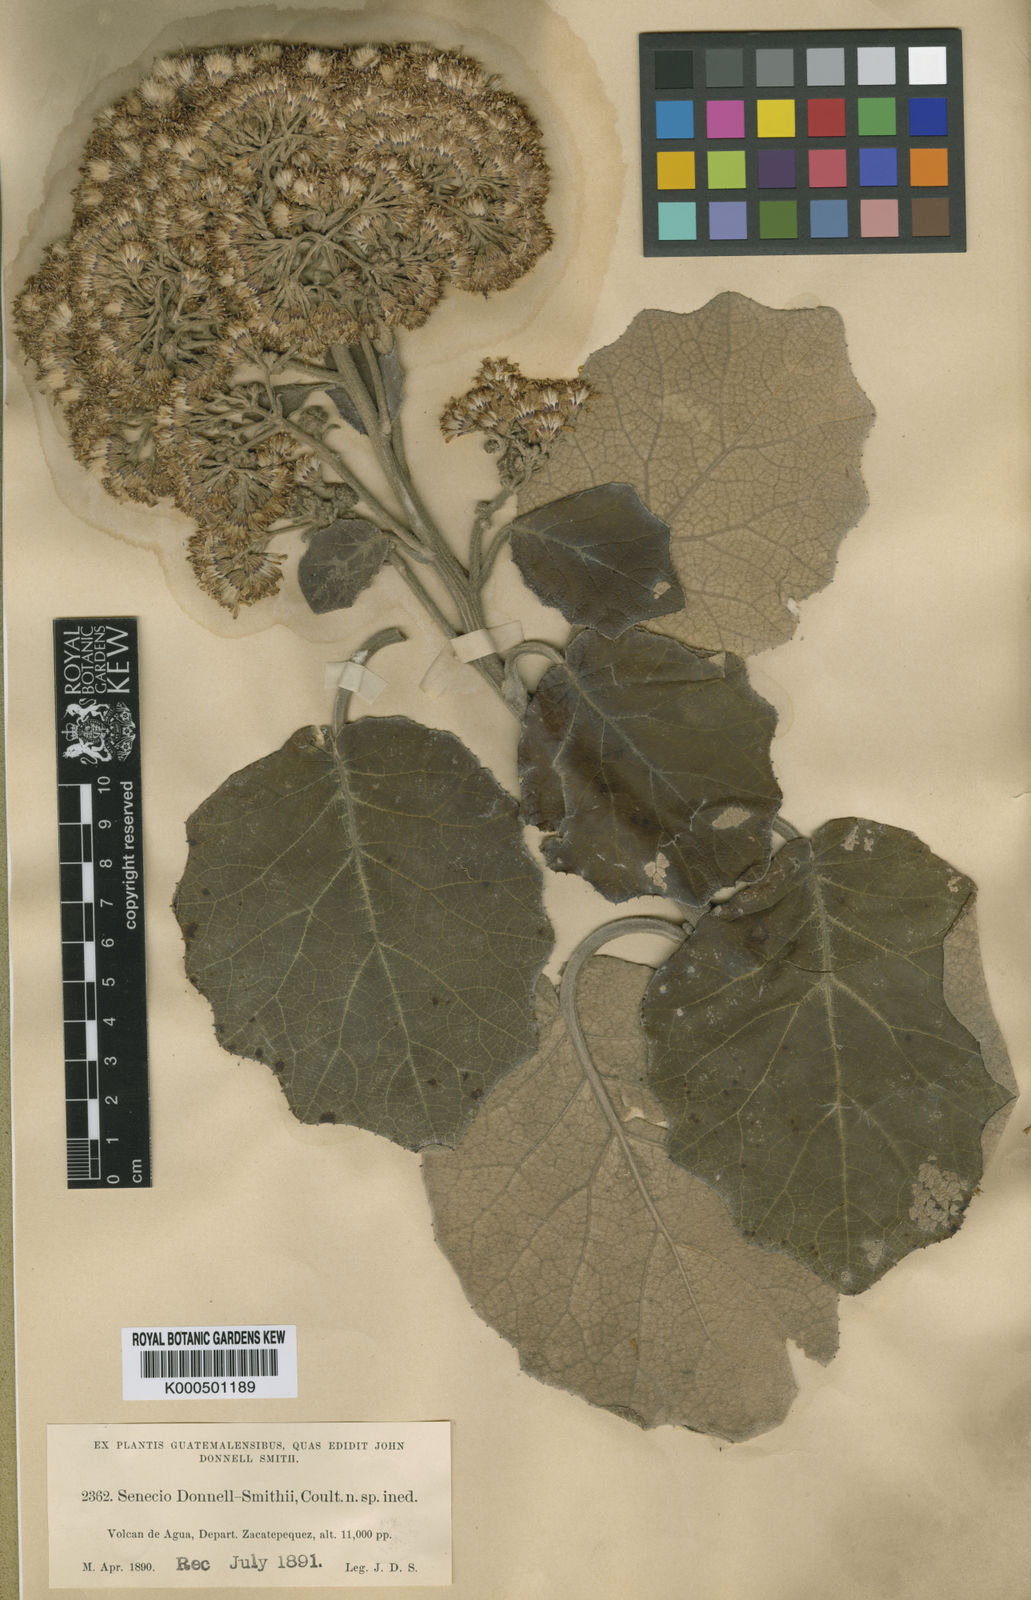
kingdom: Plantae
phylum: Tracheophyta
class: Magnoliopsida
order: Asterales
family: Asteraceae
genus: Roldana
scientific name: Roldana barba-johannis
